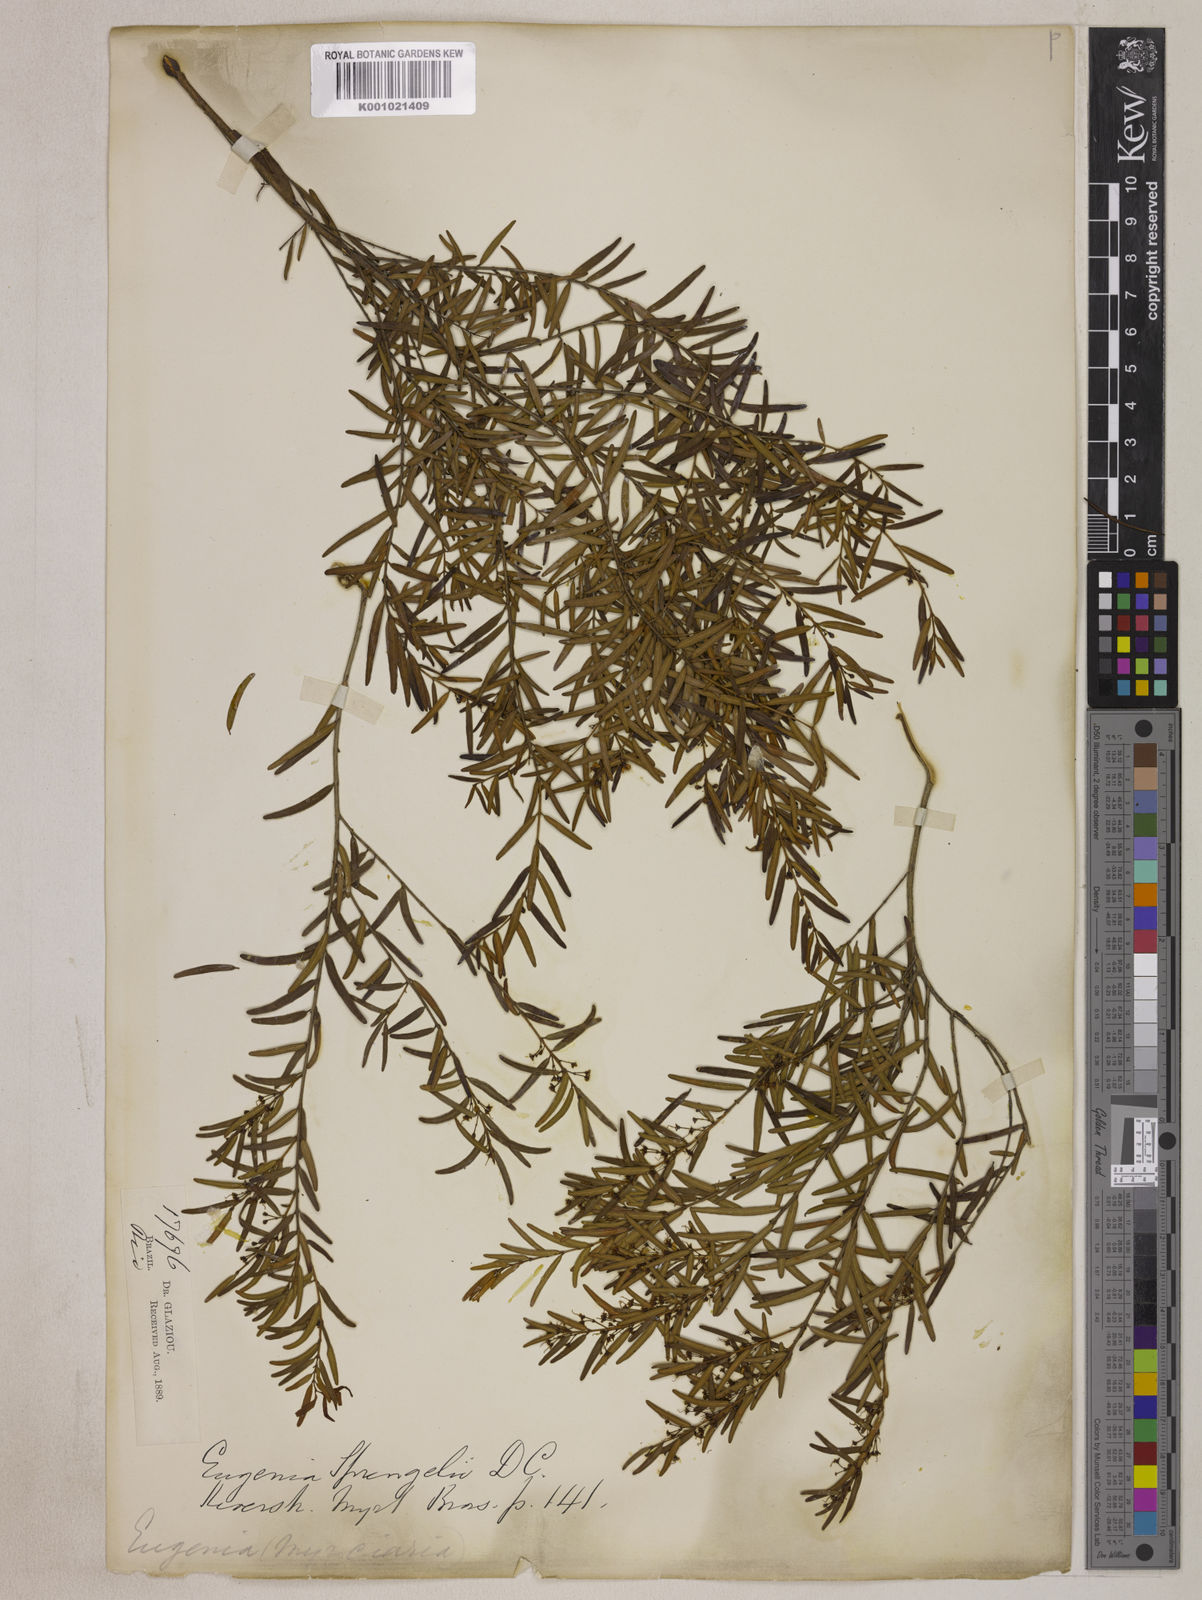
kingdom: Plantae
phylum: Tracheophyta
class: Magnoliopsida
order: Myrtales
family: Myrtaceae
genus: Eugenia
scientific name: Eugenia sprengelii
